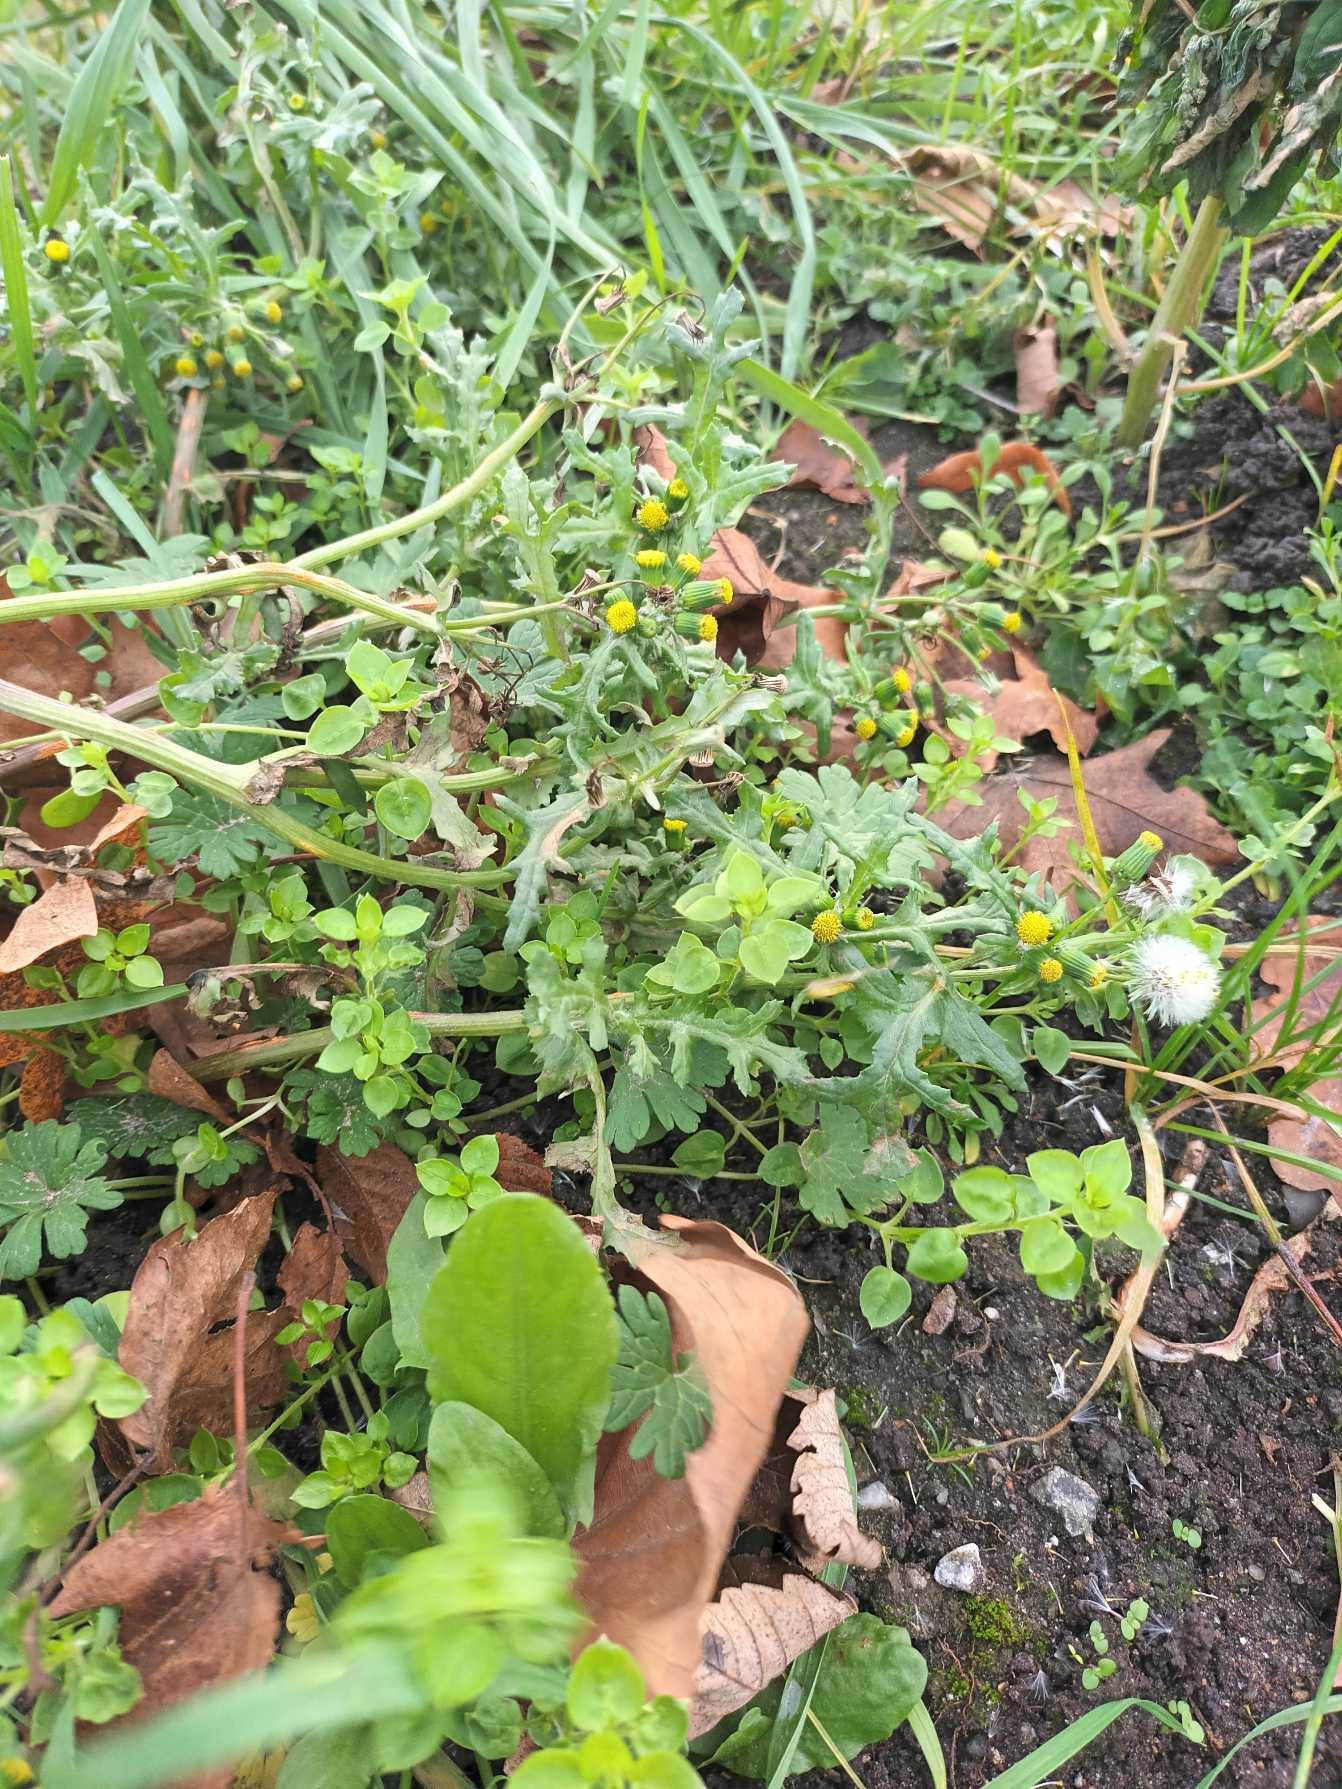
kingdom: Plantae
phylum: Tracheophyta
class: Magnoliopsida
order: Asterales
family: Asteraceae
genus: Senecio
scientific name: Senecio vulgaris
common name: Almindelig brandbæger
